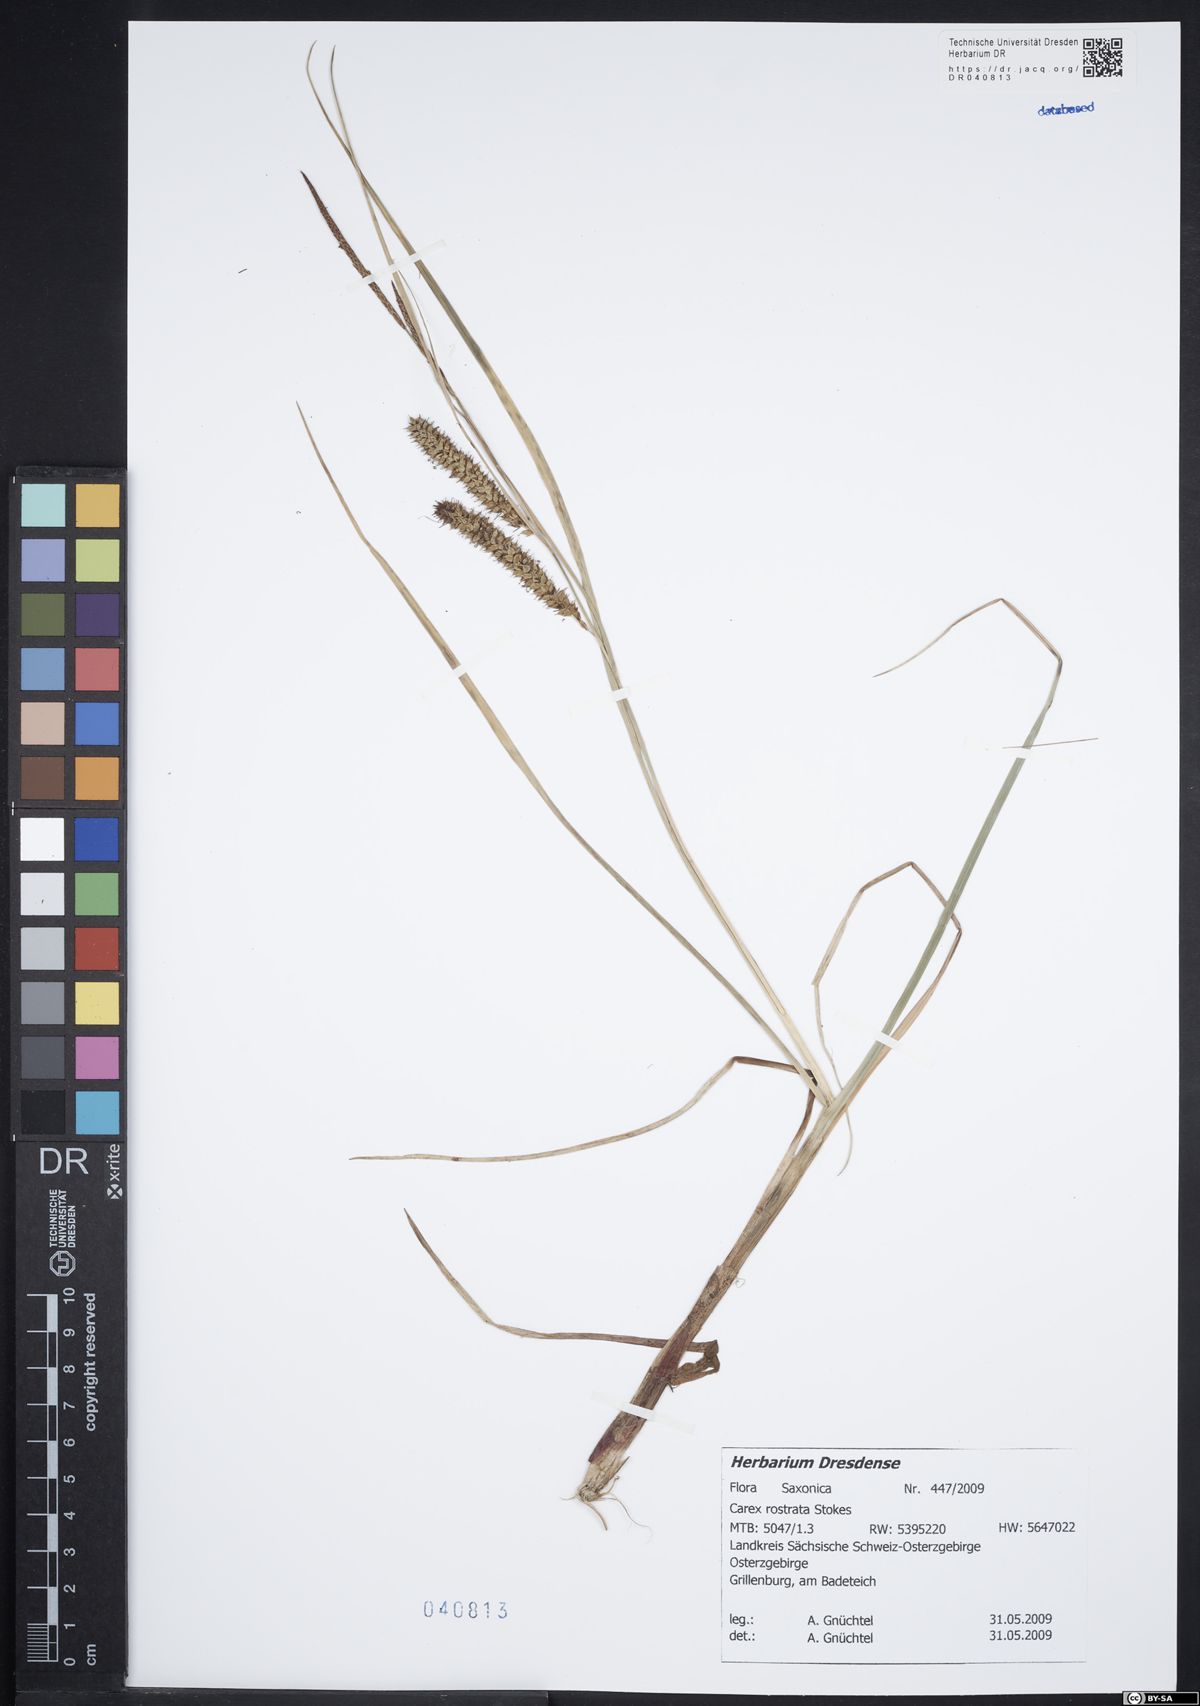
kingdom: Plantae
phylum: Tracheophyta
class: Liliopsida
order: Poales
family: Cyperaceae
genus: Carex
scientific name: Carex rostrata
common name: Bottle sedge
